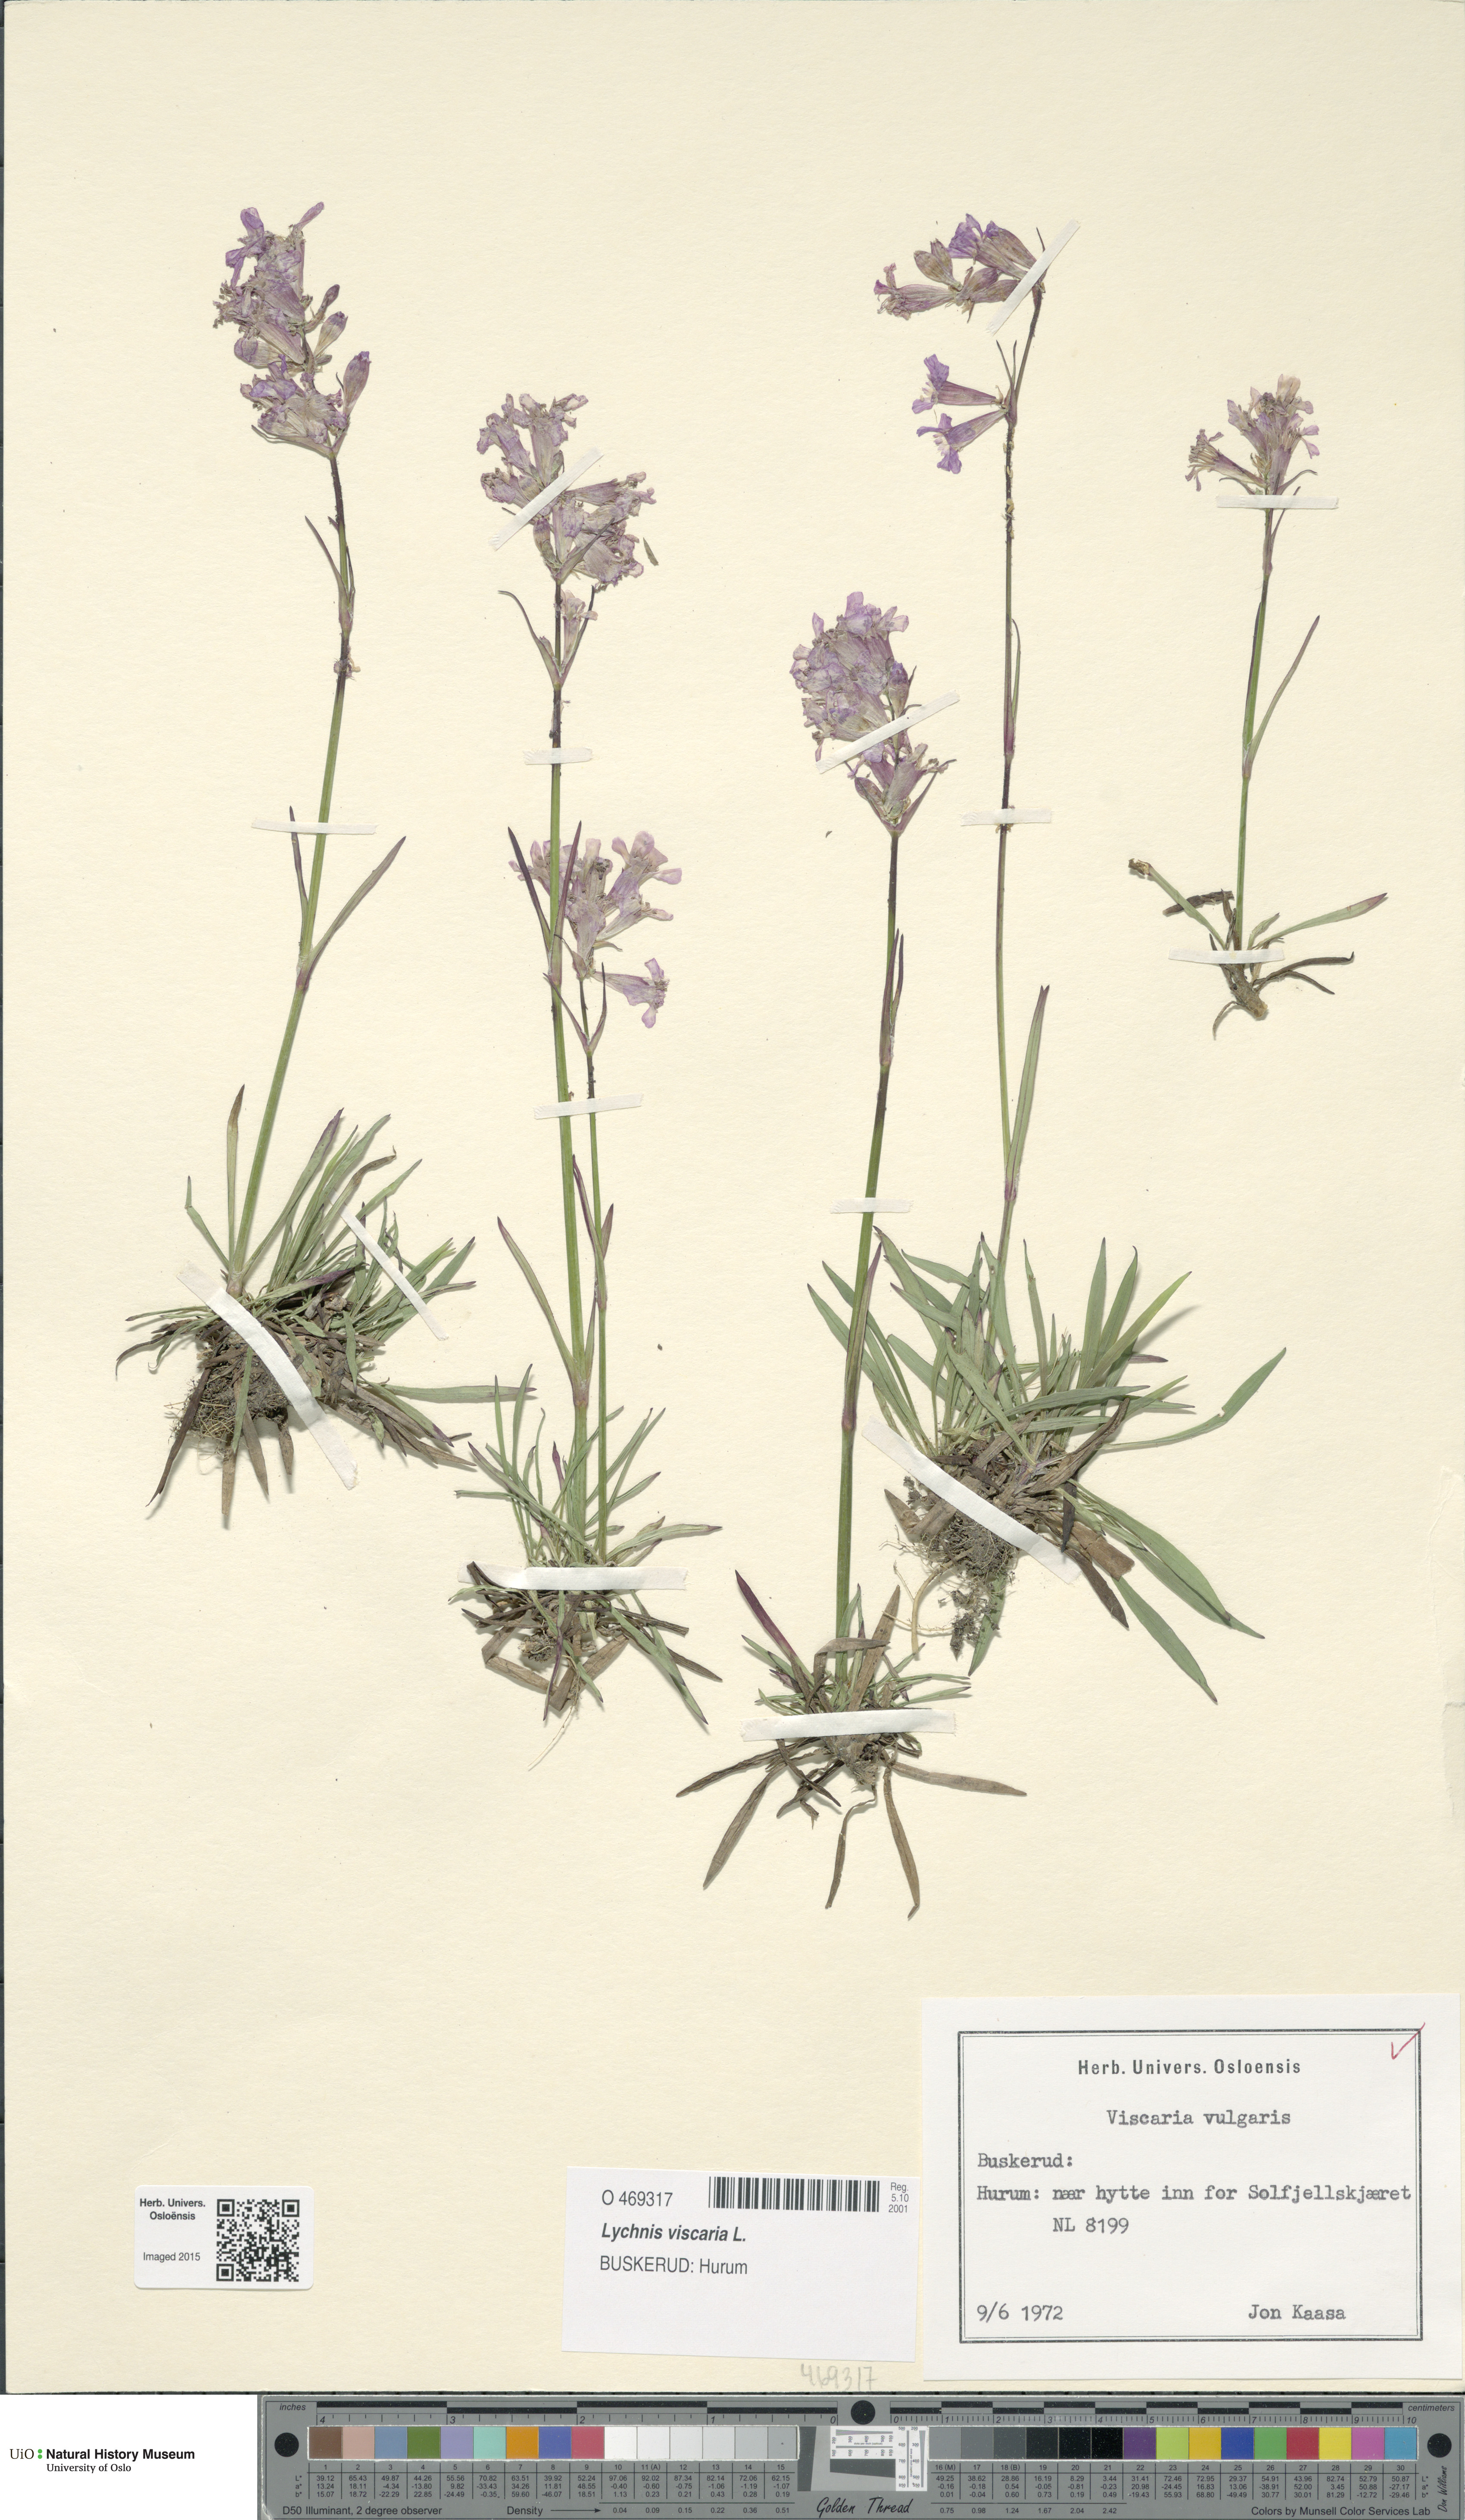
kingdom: Plantae
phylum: Tracheophyta
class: Magnoliopsida
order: Caryophyllales
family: Caryophyllaceae
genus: Viscaria
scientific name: Viscaria vulgaris
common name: Clammy campion
